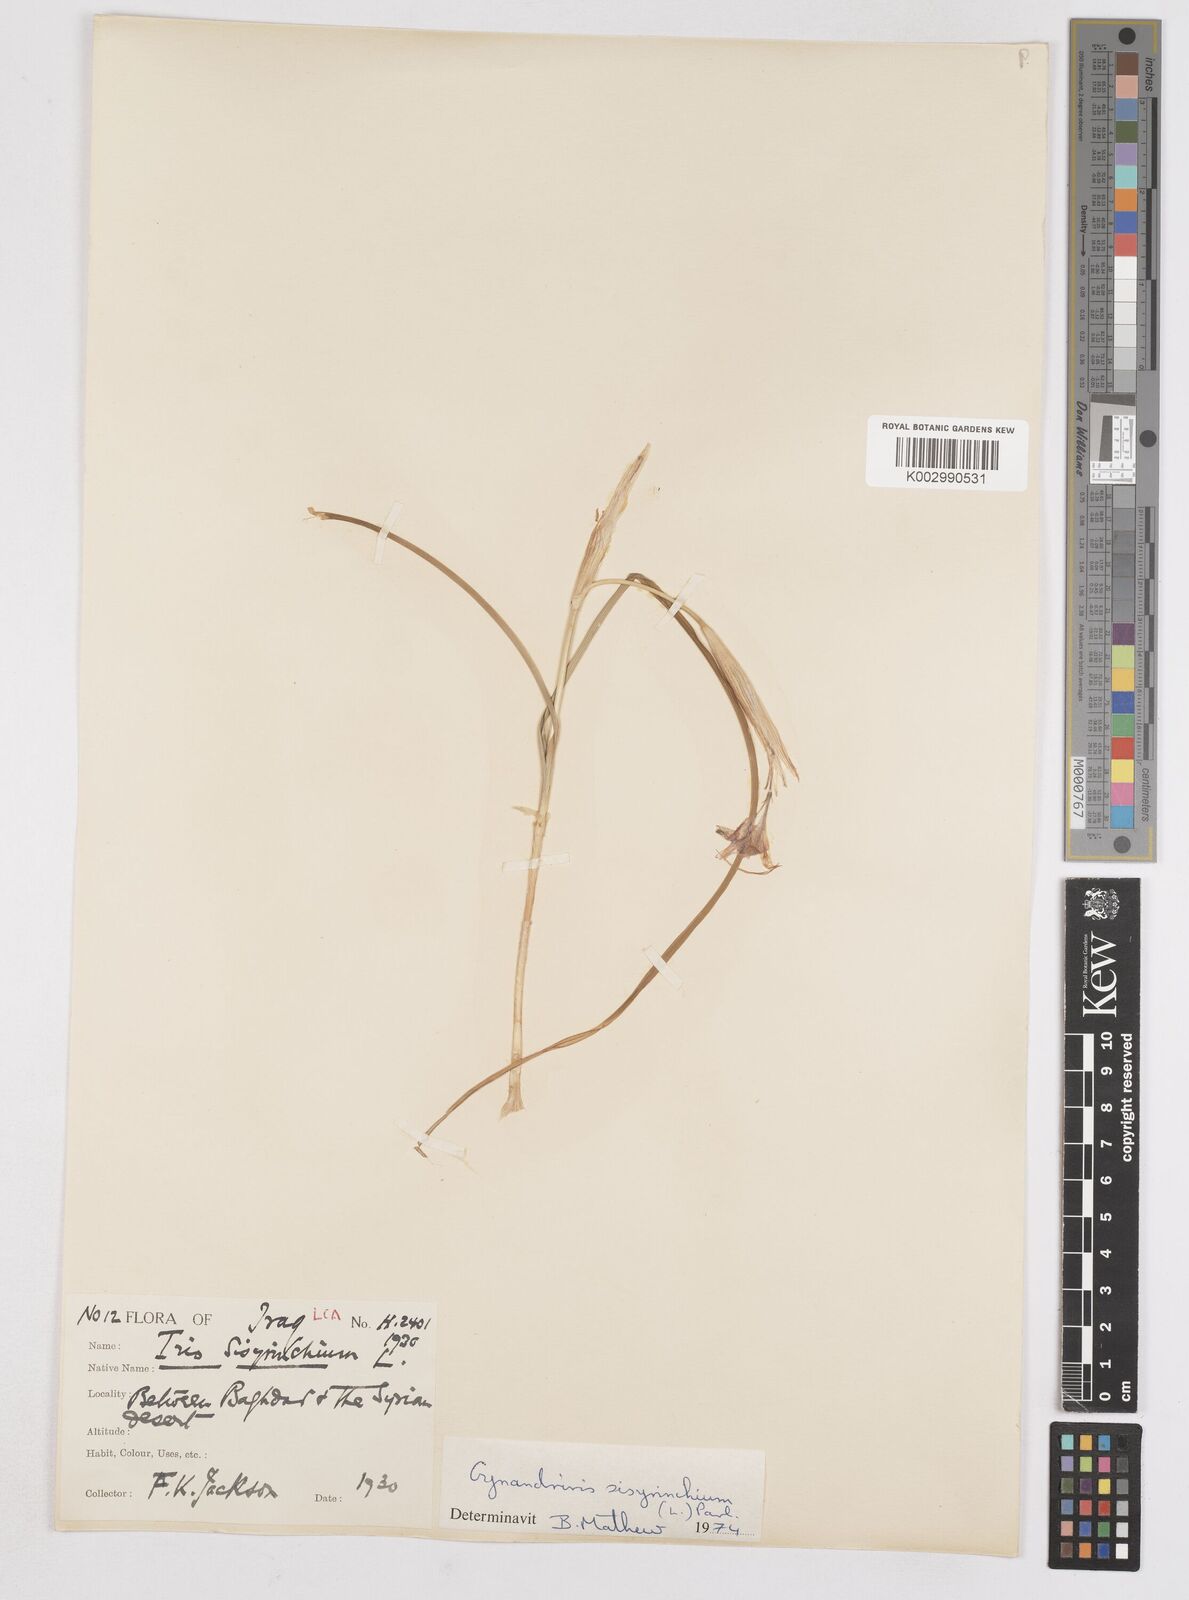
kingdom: Plantae
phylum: Tracheophyta
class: Liliopsida
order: Asparagales
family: Iridaceae
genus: Moraea
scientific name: Moraea sisyrinchium
